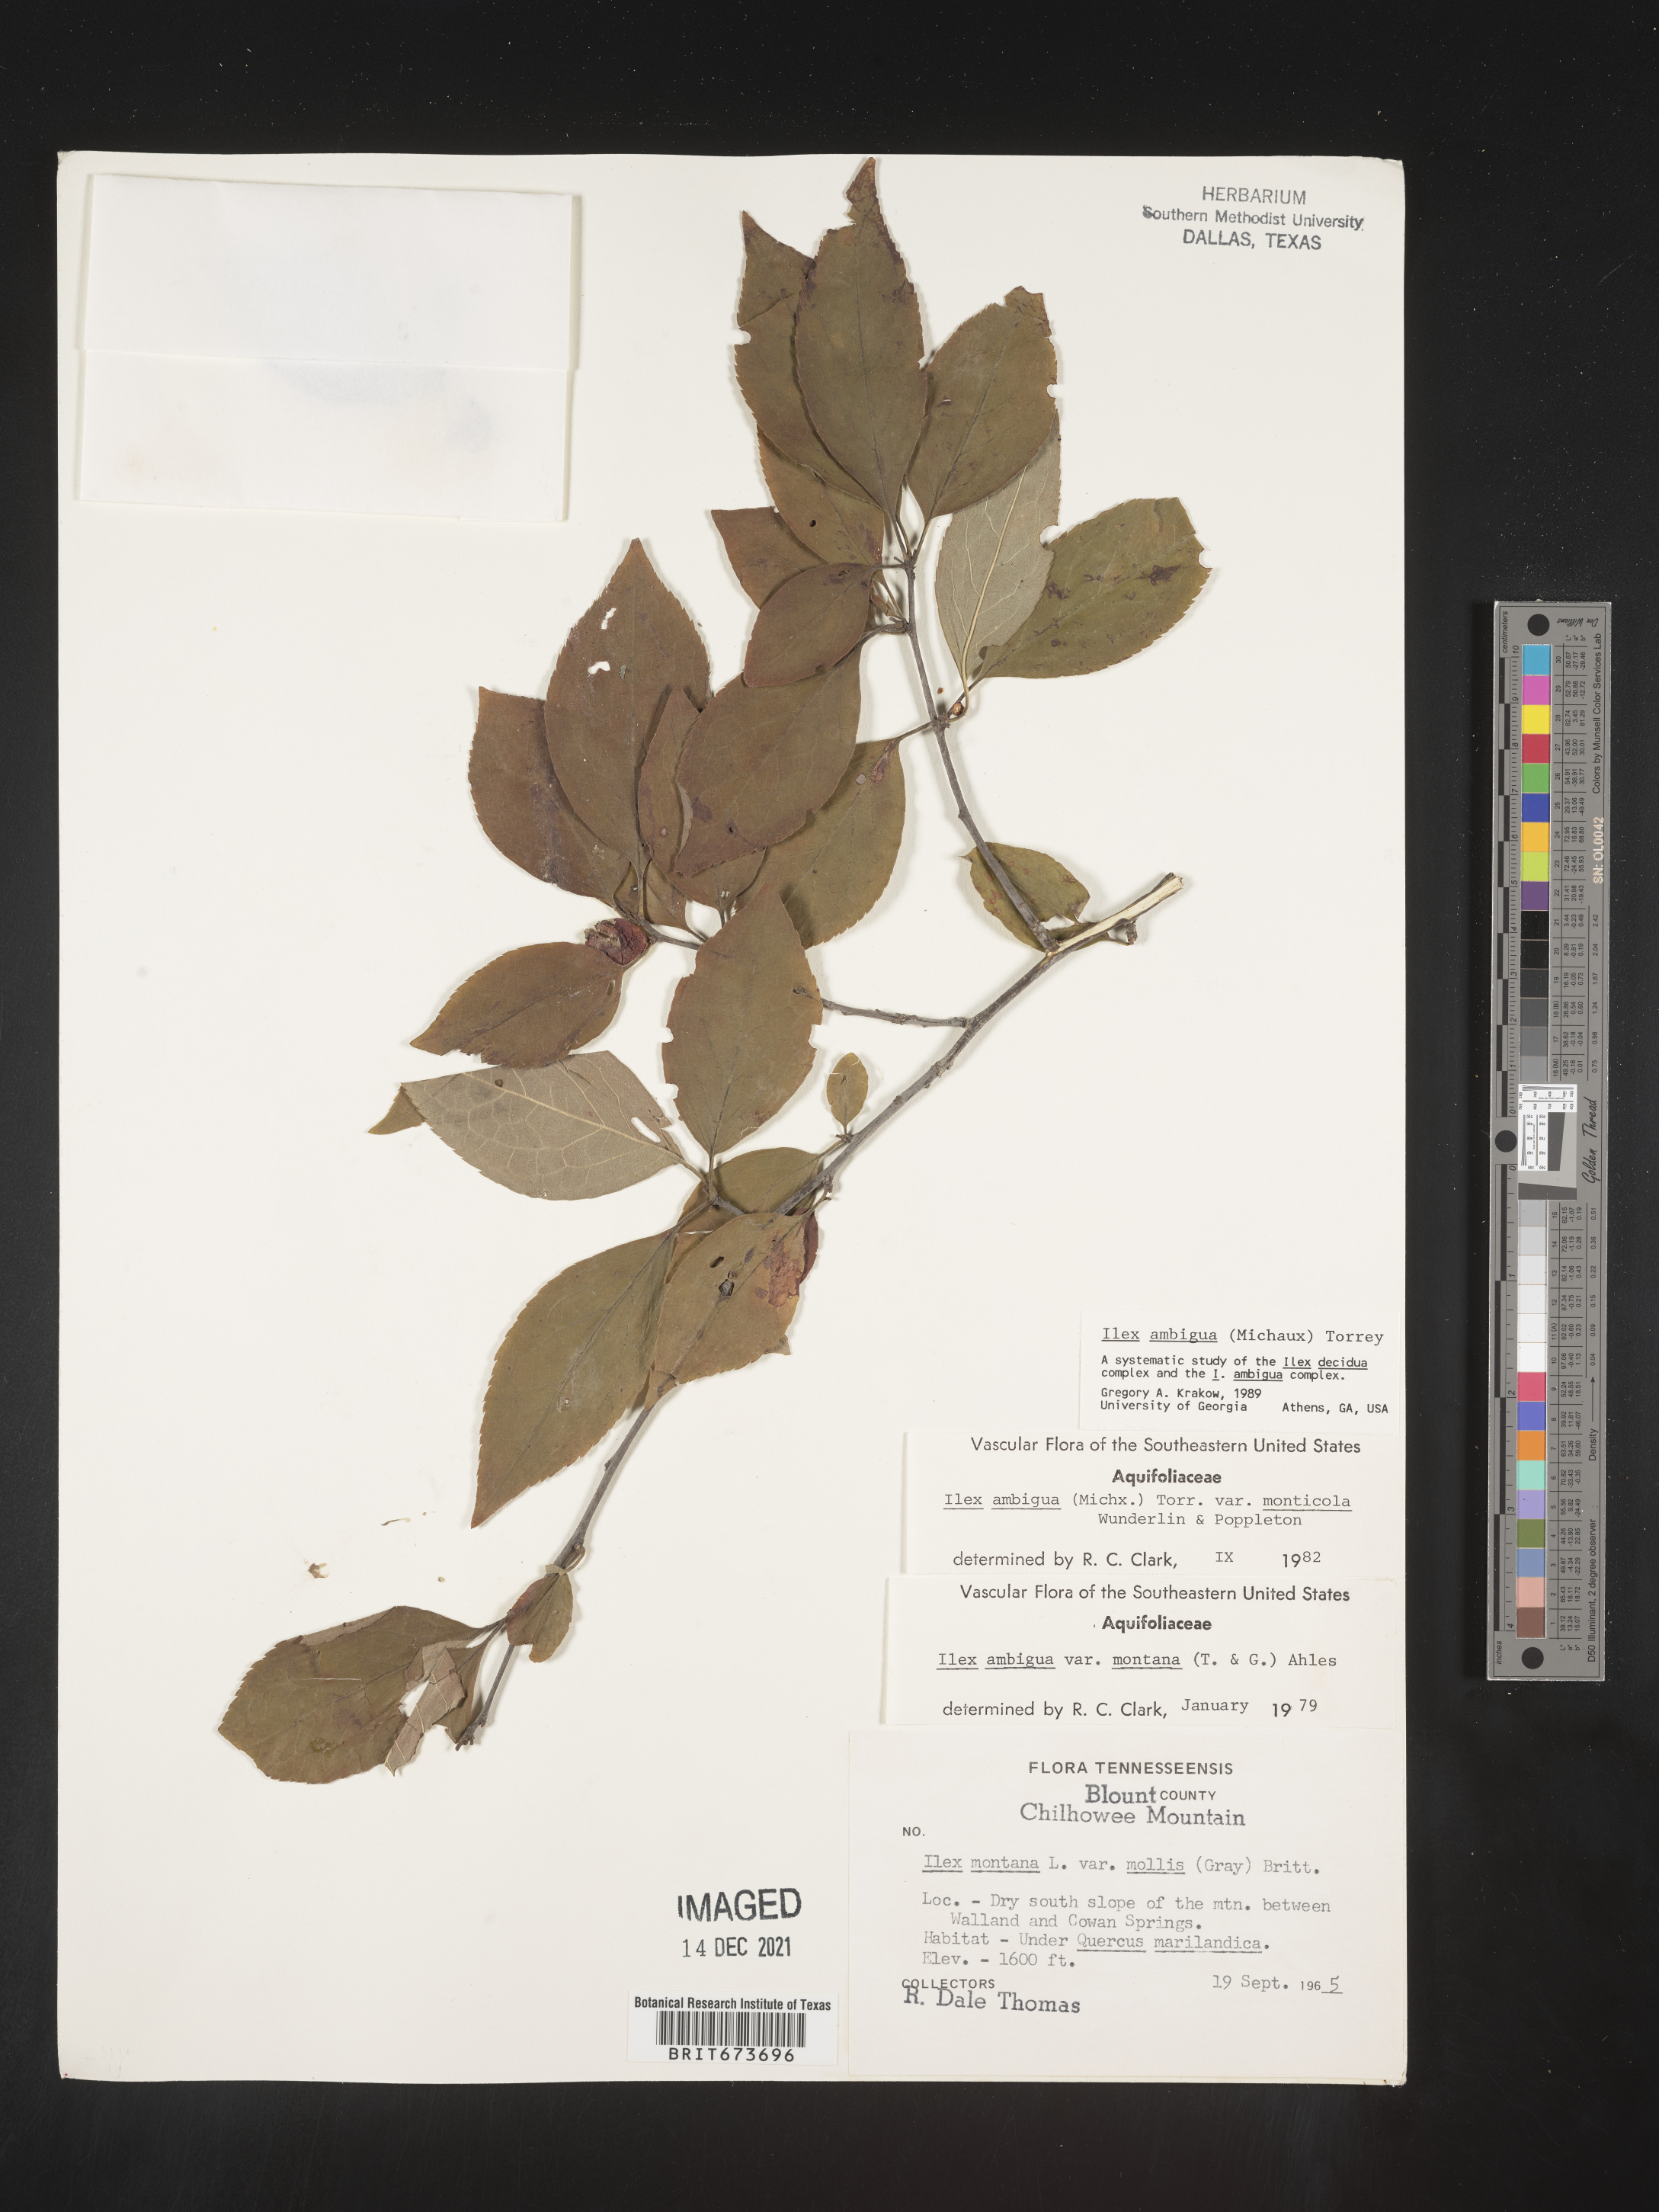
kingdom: Plantae
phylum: Tracheophyta
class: Magnoliopsida
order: Aquifoliales
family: Aquifoliaceae
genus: Ilex
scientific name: Ilex ambigua
